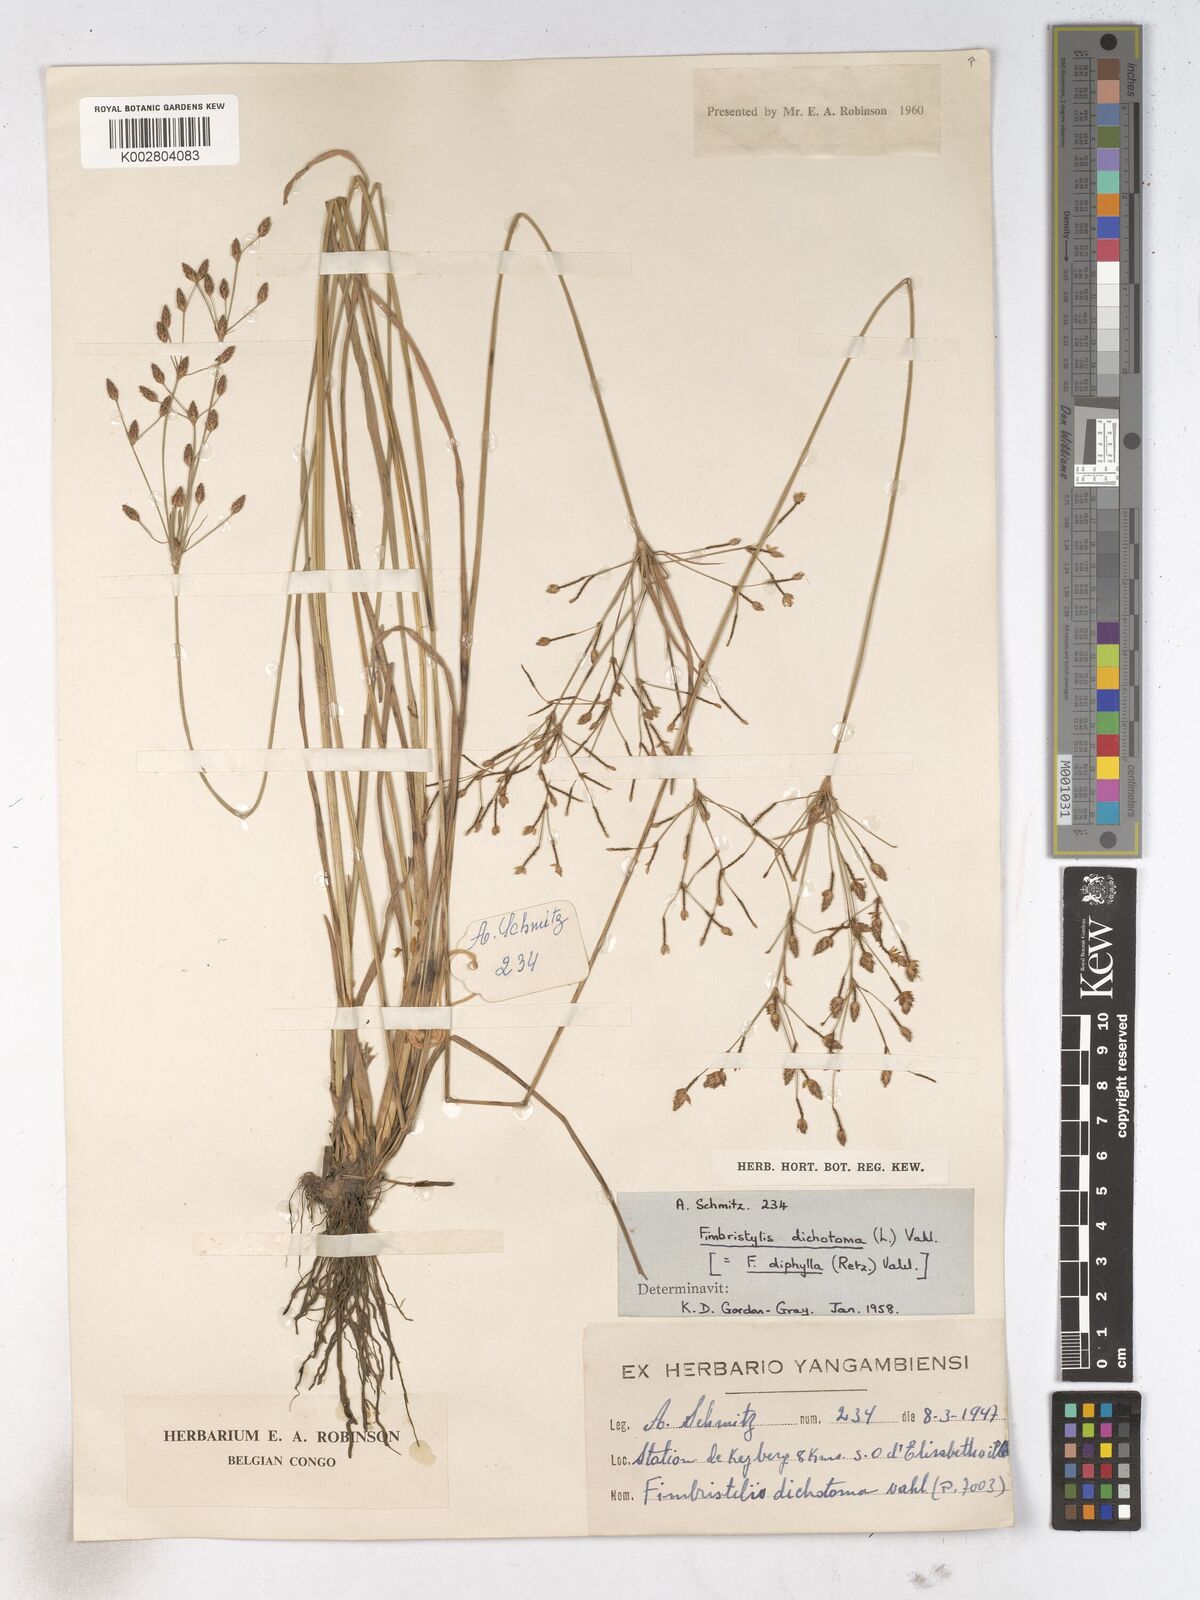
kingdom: Plantae
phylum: Tracheophyta
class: Liliopsida
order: Poales
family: Cyperaceae
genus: Fimbristylis
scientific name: Fimbristylis dichotoma
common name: Forked fimbry
